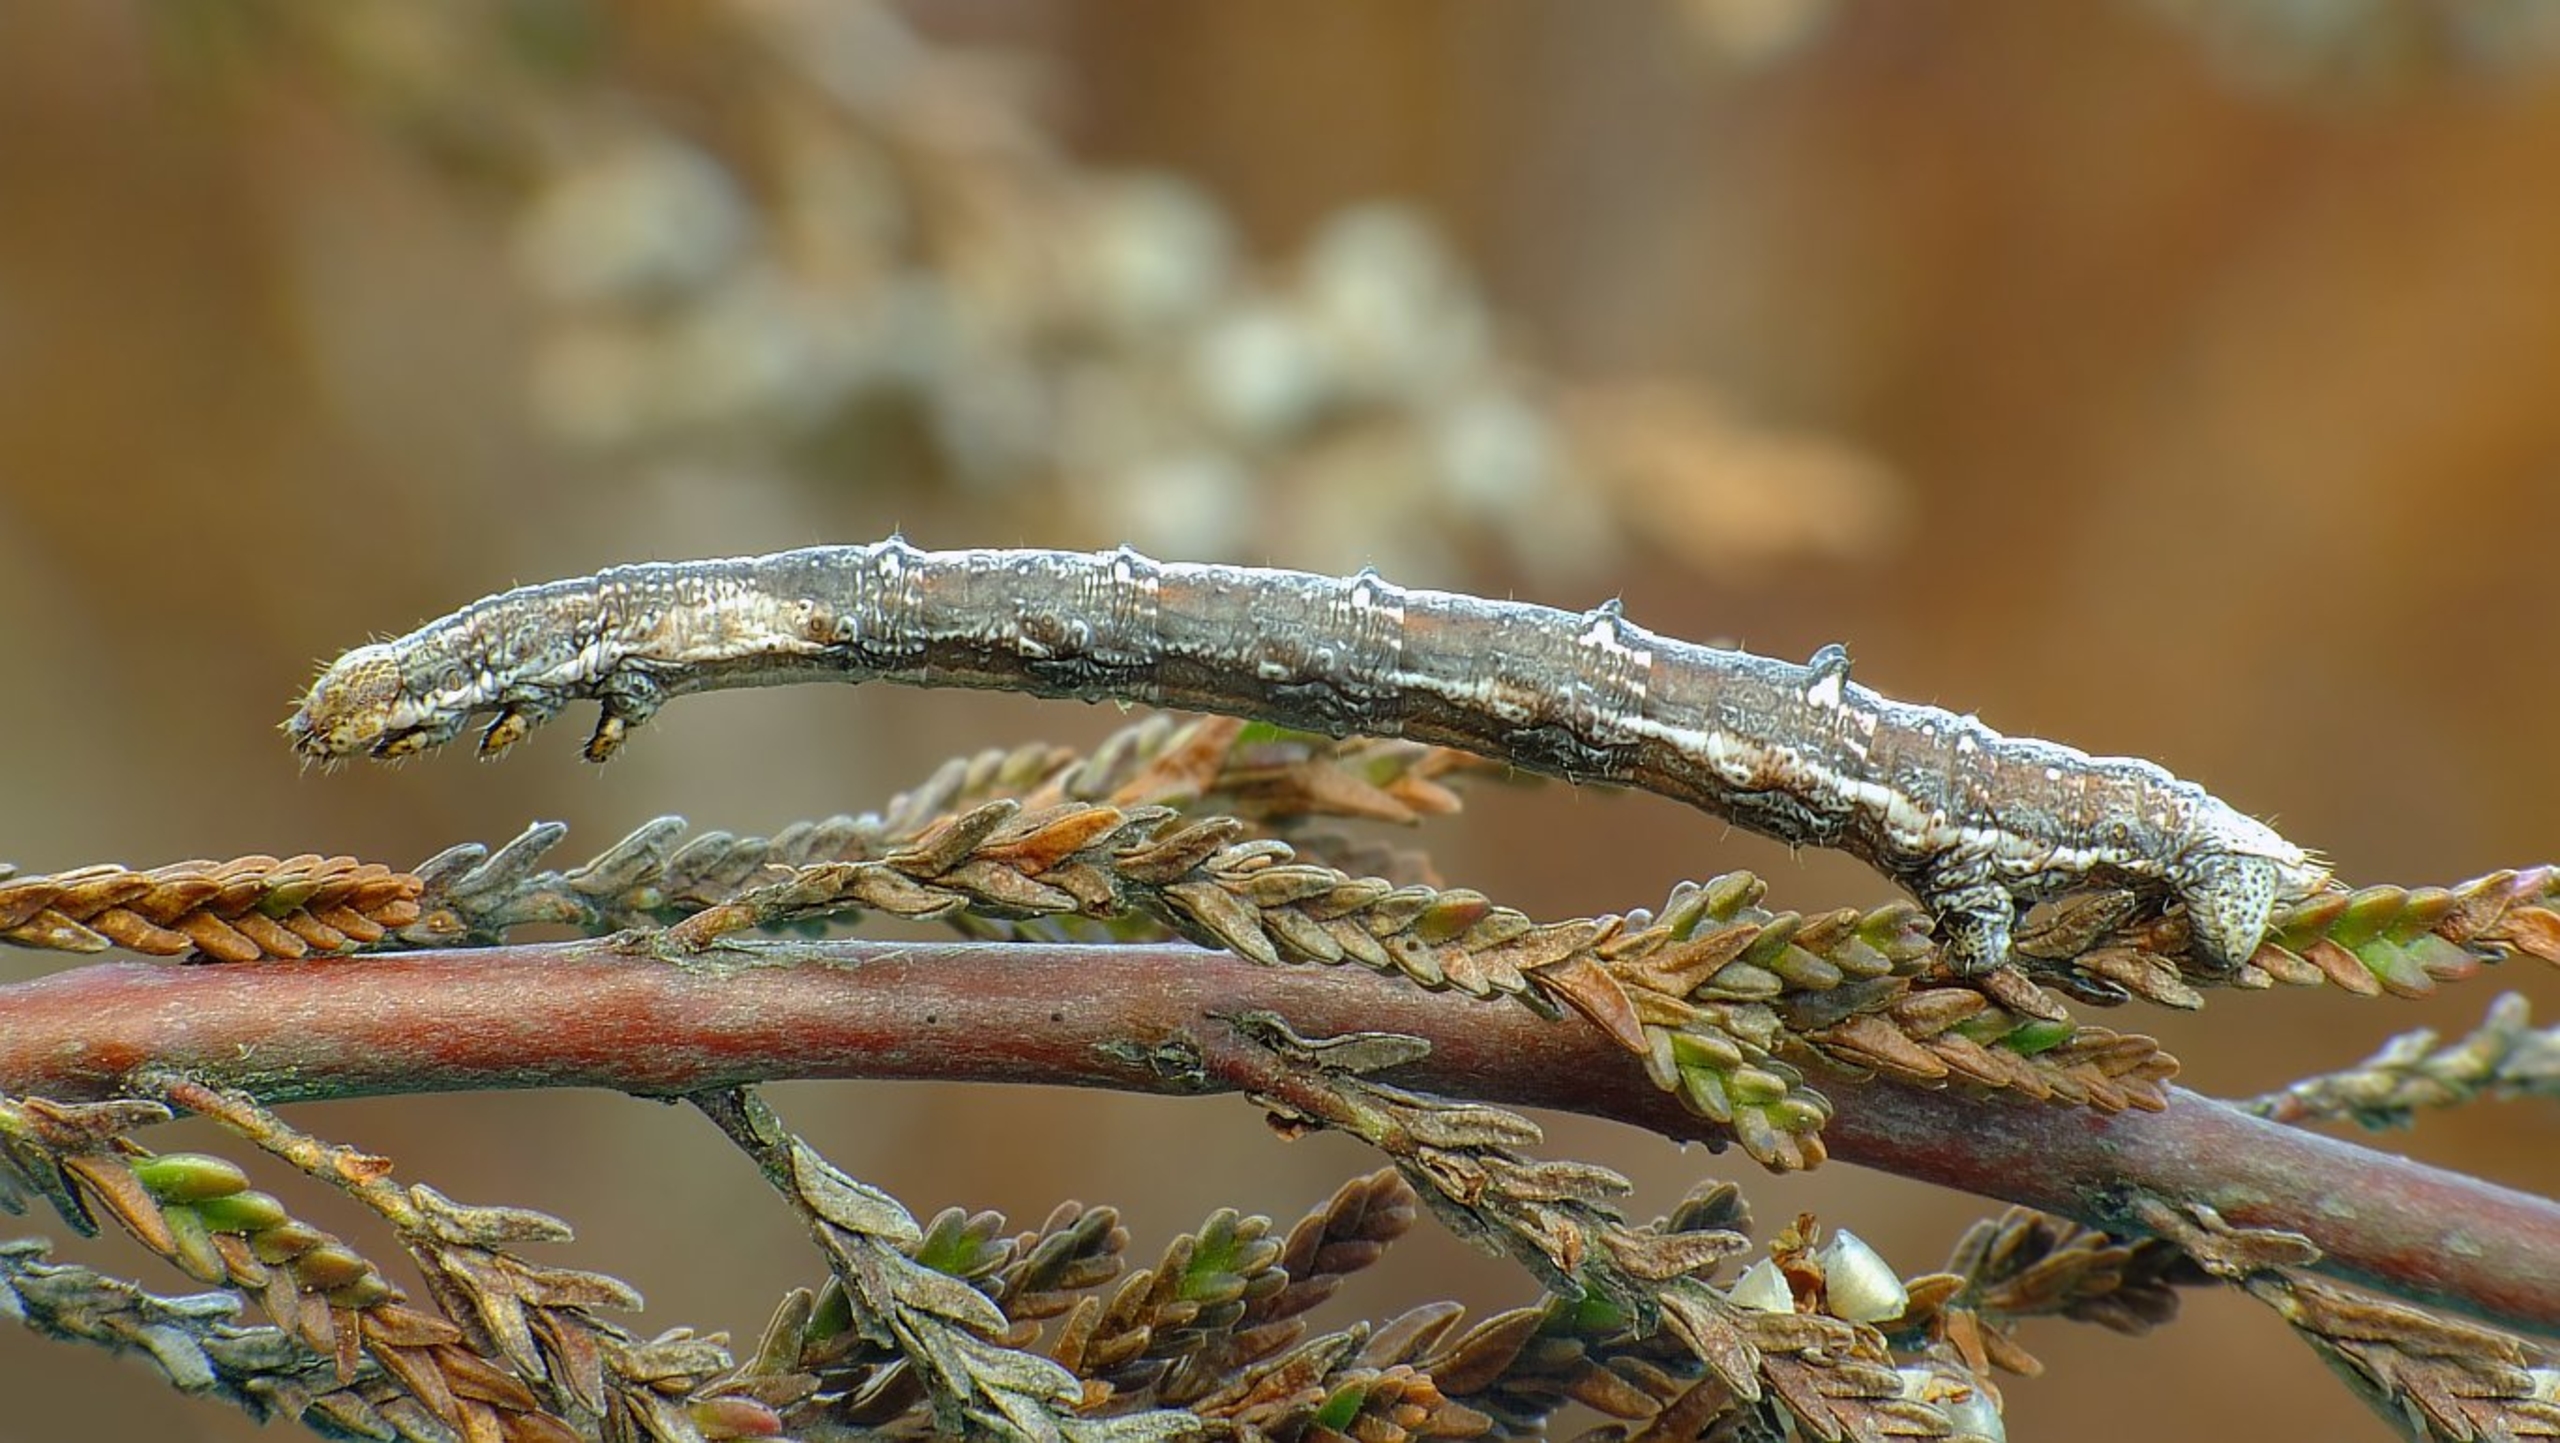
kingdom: Animalia
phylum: Arthropoda
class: Insecta
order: Lepidoptera
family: Geometridae
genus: Perconia
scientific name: Perconia strigillaria
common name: Stribet hedemåler
